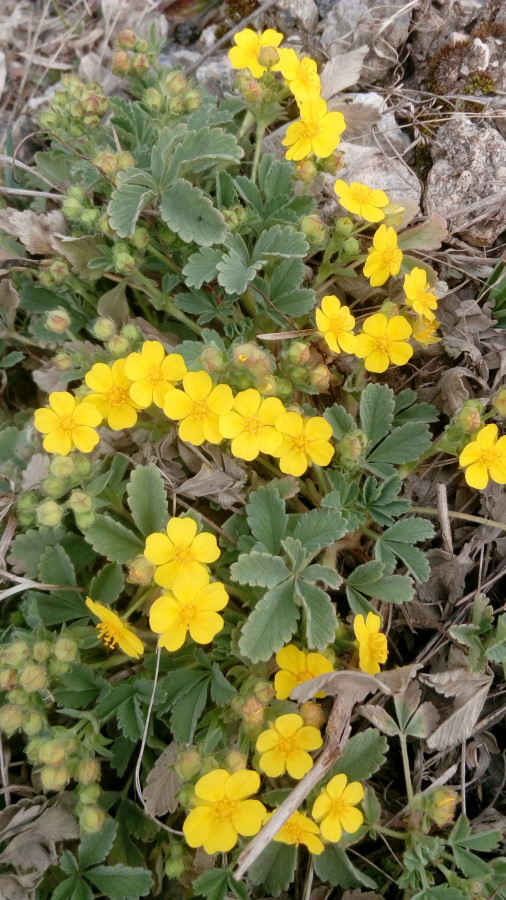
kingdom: Plantae
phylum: Tracheophyta
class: Magnoliopsida
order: Rosales
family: Rosaceae
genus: Potentilla
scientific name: Potentilla cinerea
